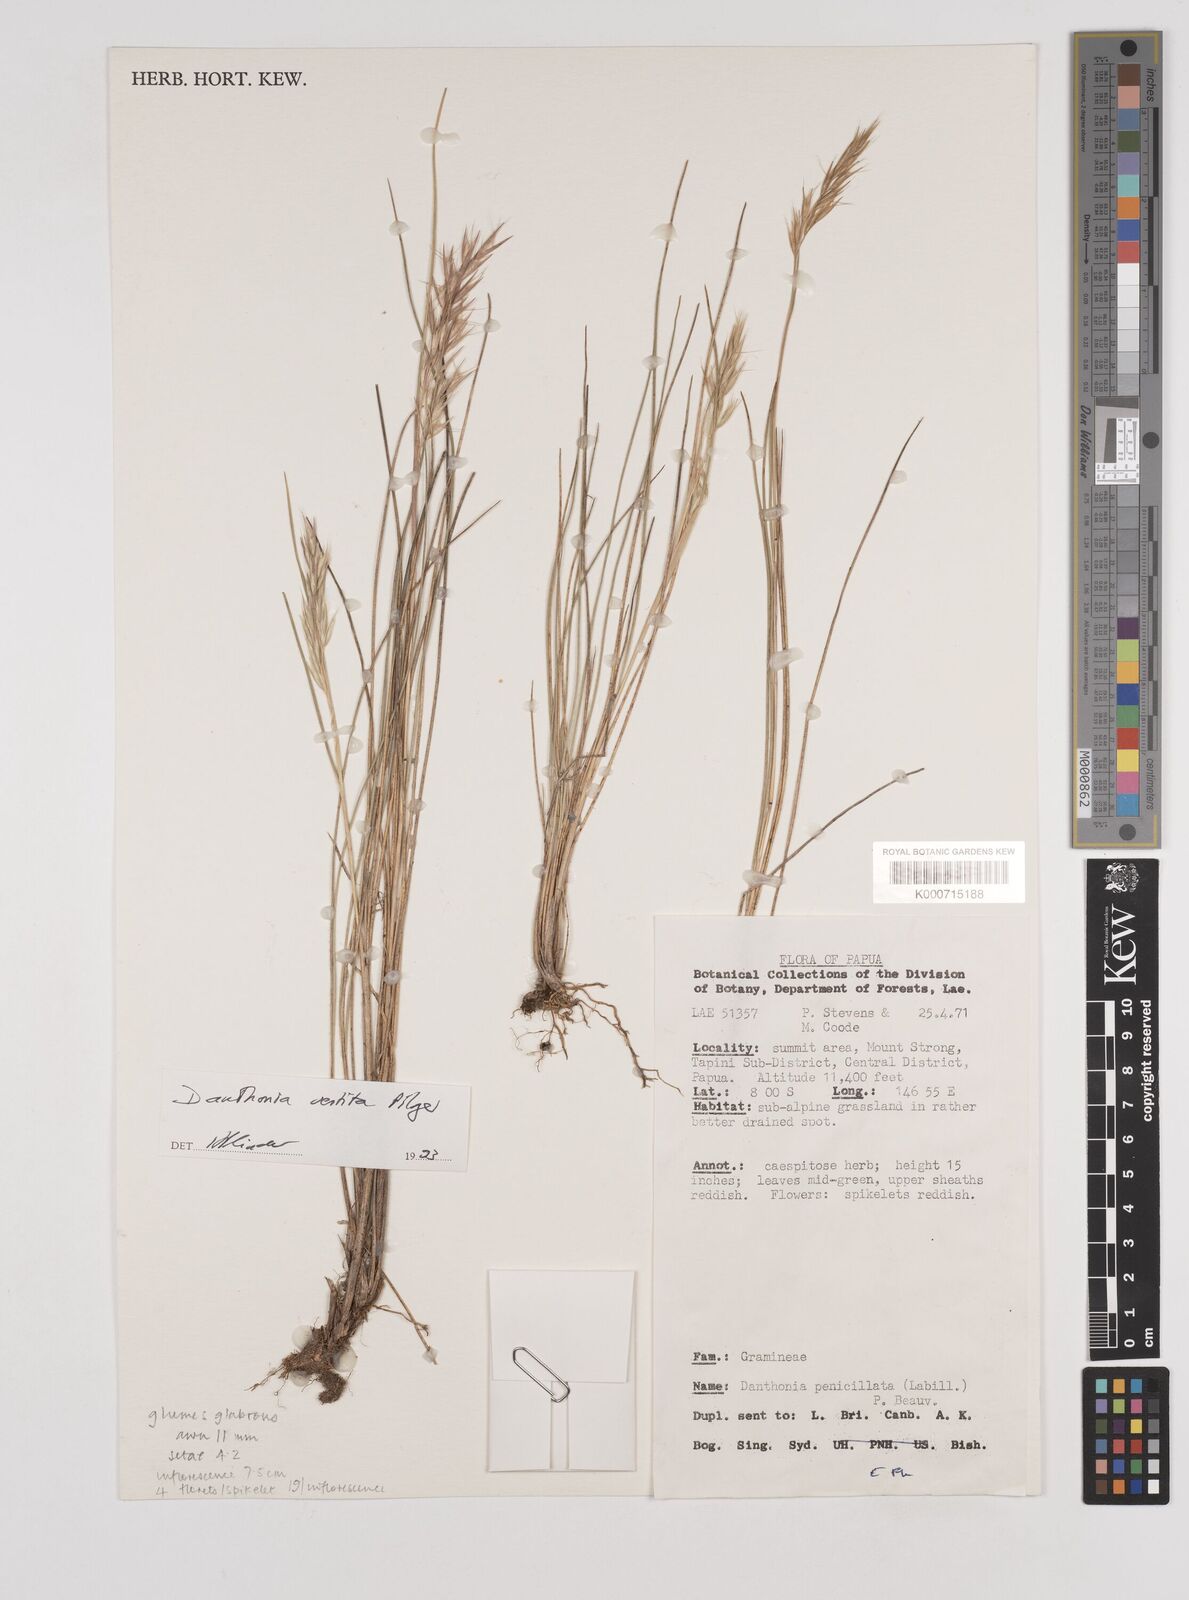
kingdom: Plantae
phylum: Tracheophyta
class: Liliopsida
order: Poales
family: Poaceae
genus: Rytidosperma
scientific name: Rytidosperma vestitum
